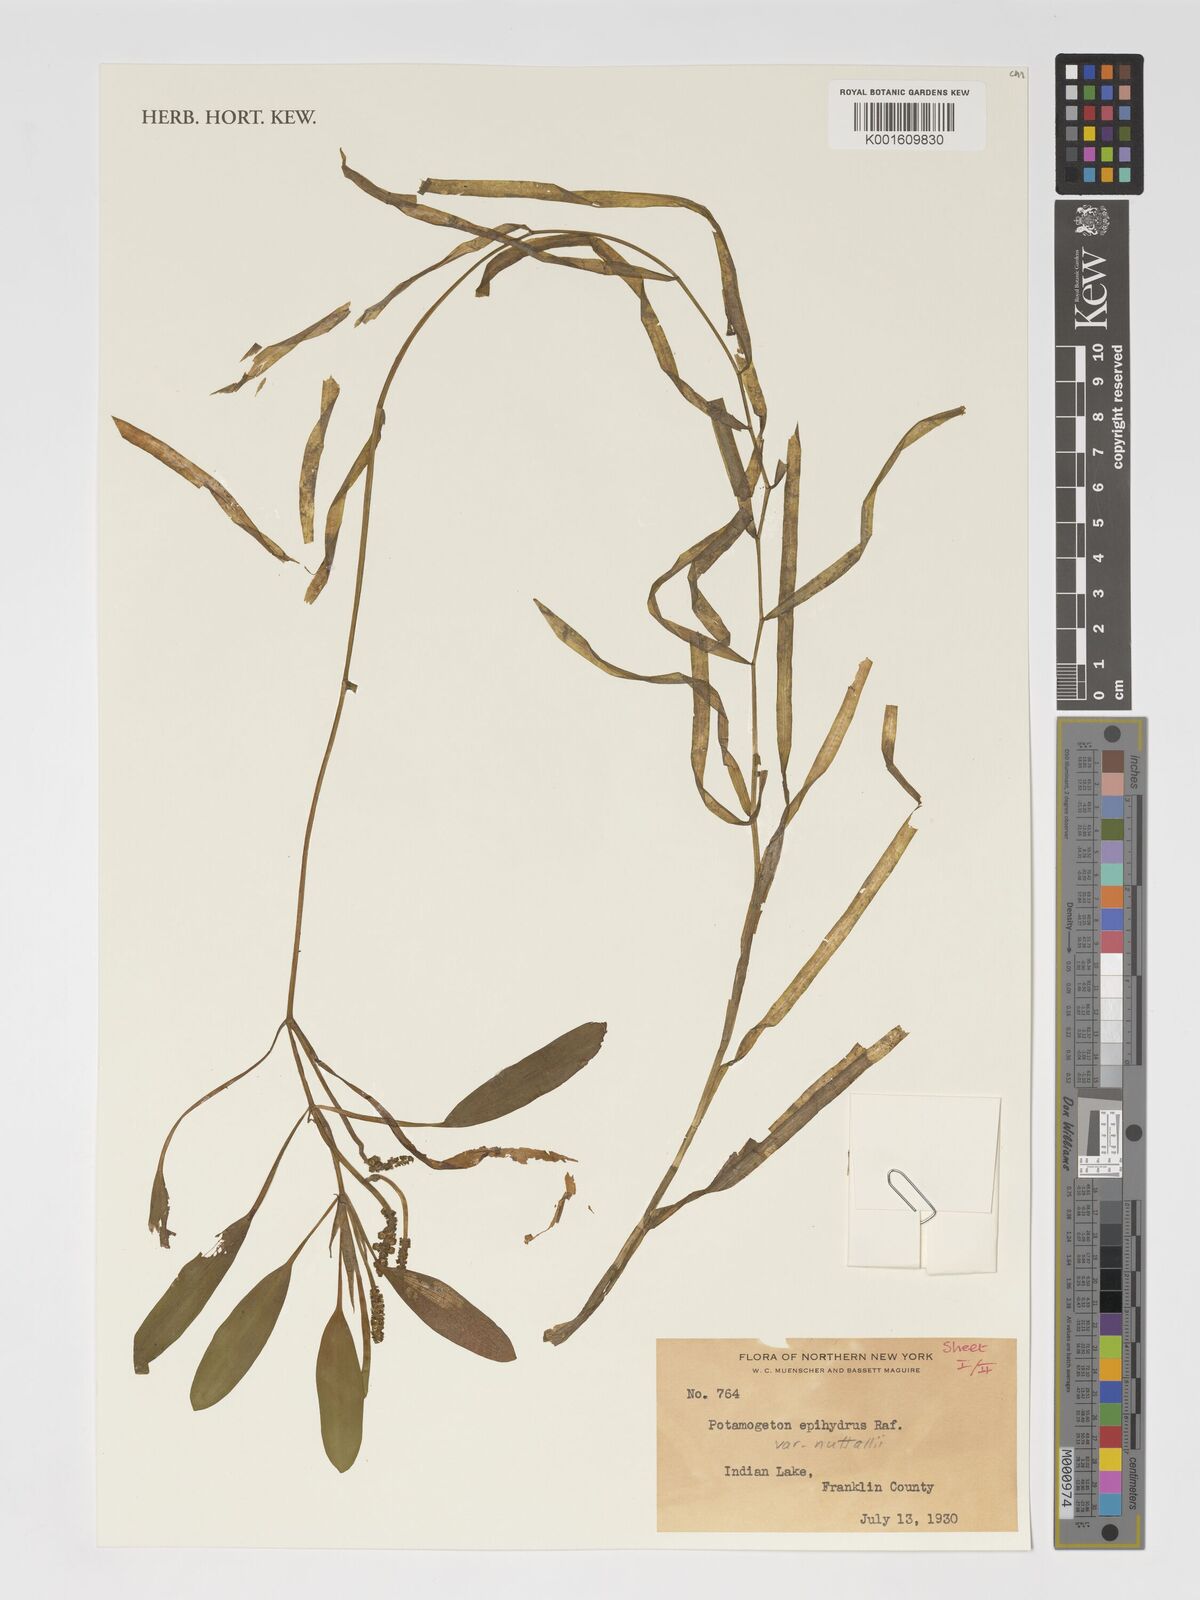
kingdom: Plantae
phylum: Tracheophyta
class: Liliopsida
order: Alismatales
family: Potamogetonaceae
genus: Potamogeton
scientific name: Potamogeton epihydrus
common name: American pondweed
